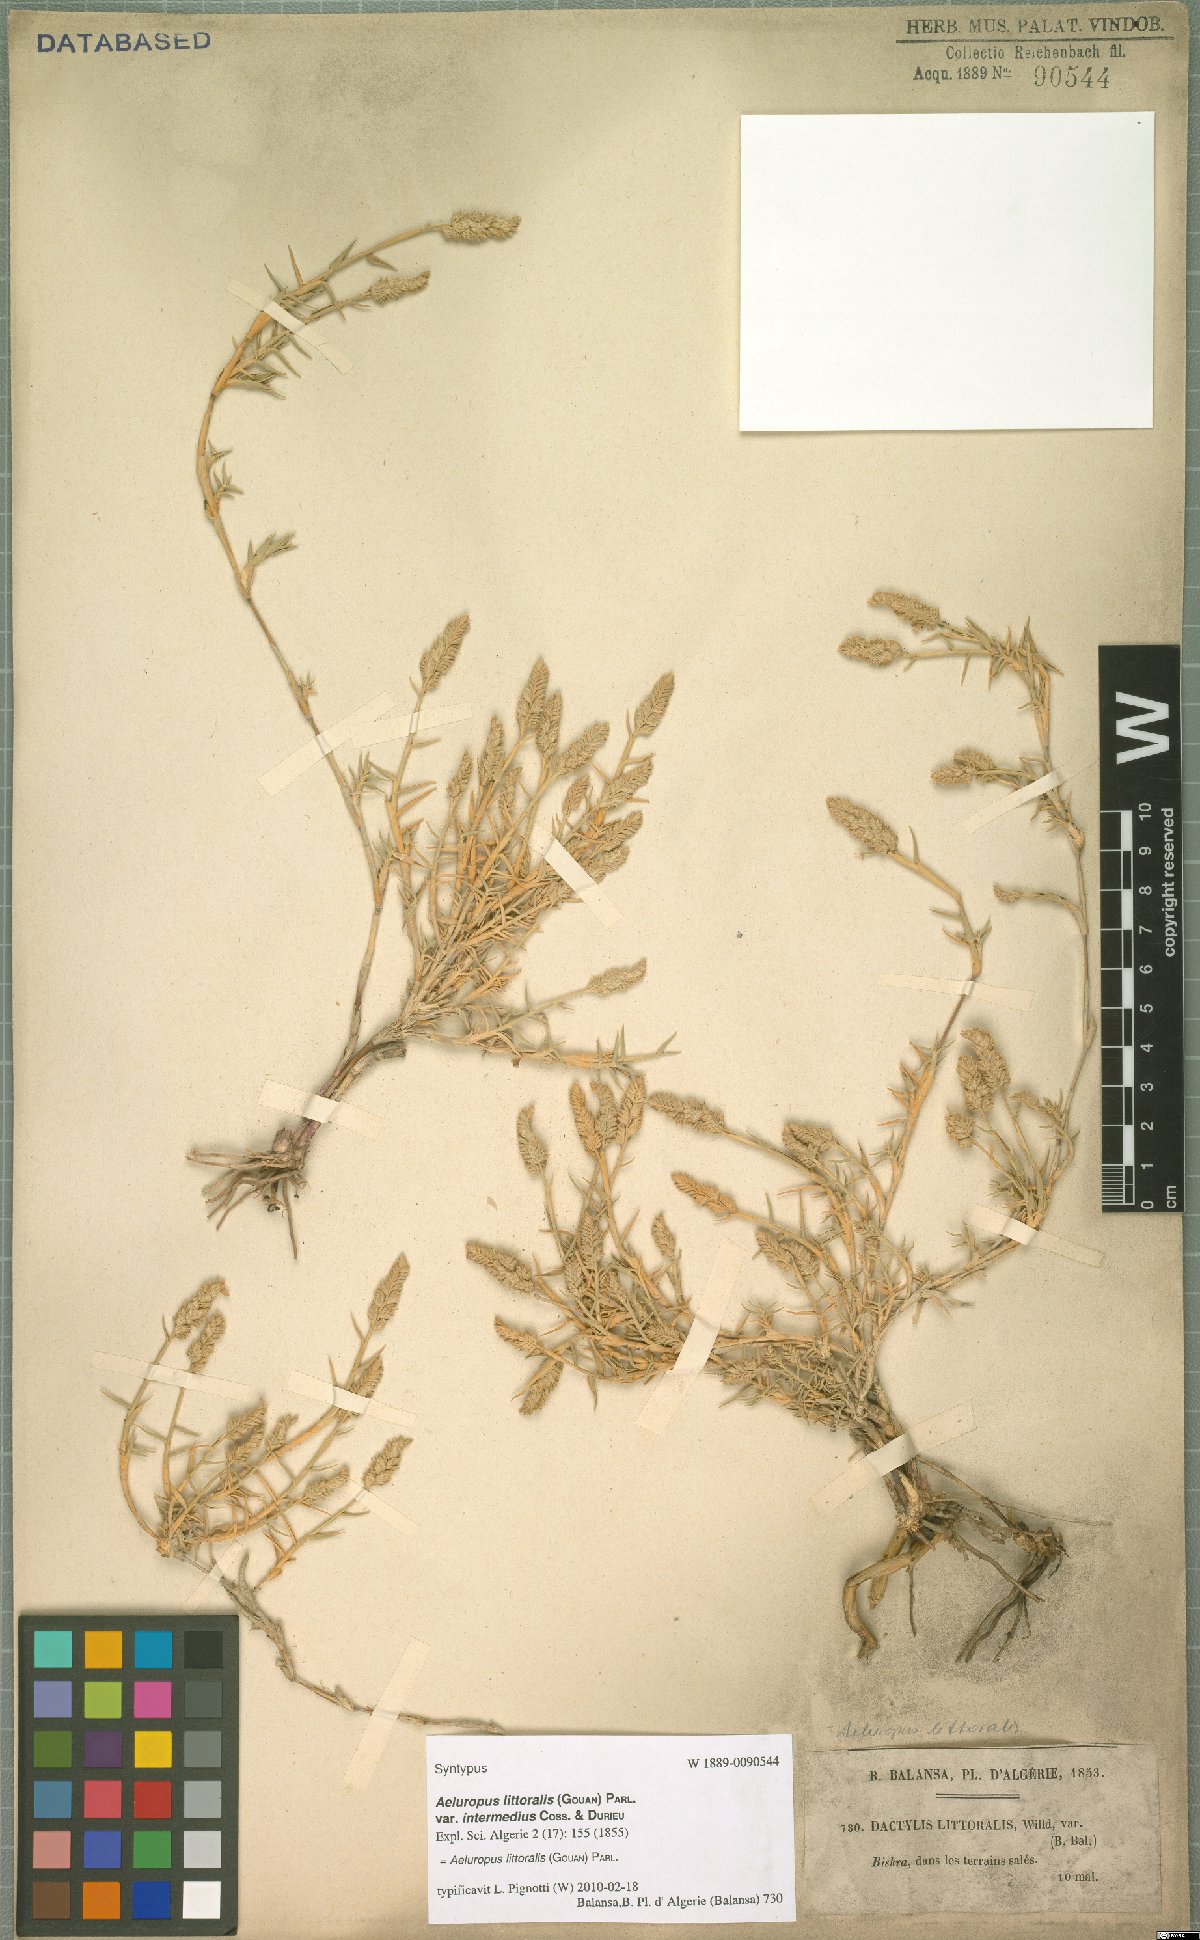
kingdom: Plantae
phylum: Tracheophyta
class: Liliopsida
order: Poales
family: Poaceae
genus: Aeluropus
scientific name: Aeluropus littoralis
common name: Indian walnut
